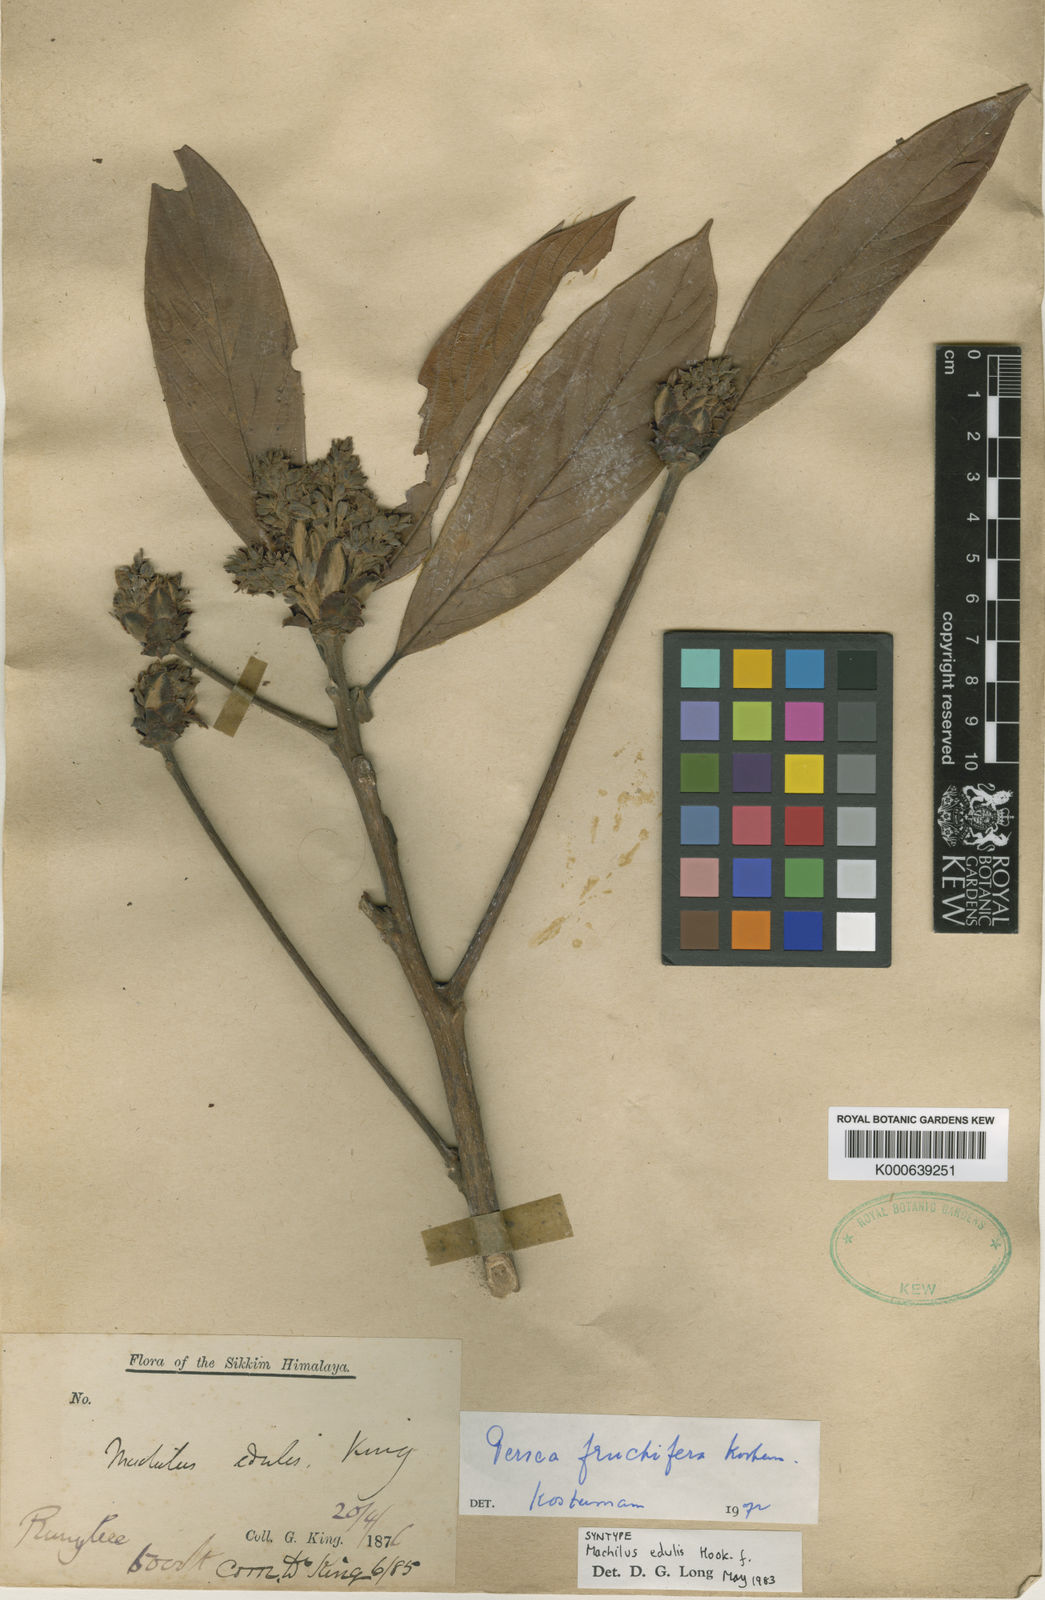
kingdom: Plantae
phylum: Tracheophyta
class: Magnoliopsida
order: Laurales
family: Lauraceae
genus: Machilus
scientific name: Machilus edulis
